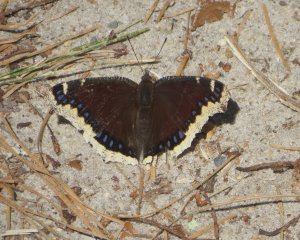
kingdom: Animalia
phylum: Arthropoda
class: Insecta
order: Lepidoptera
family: Nymphalidae
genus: Nymphalis
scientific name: Nymphalis antiopa
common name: Mourning Cloak
